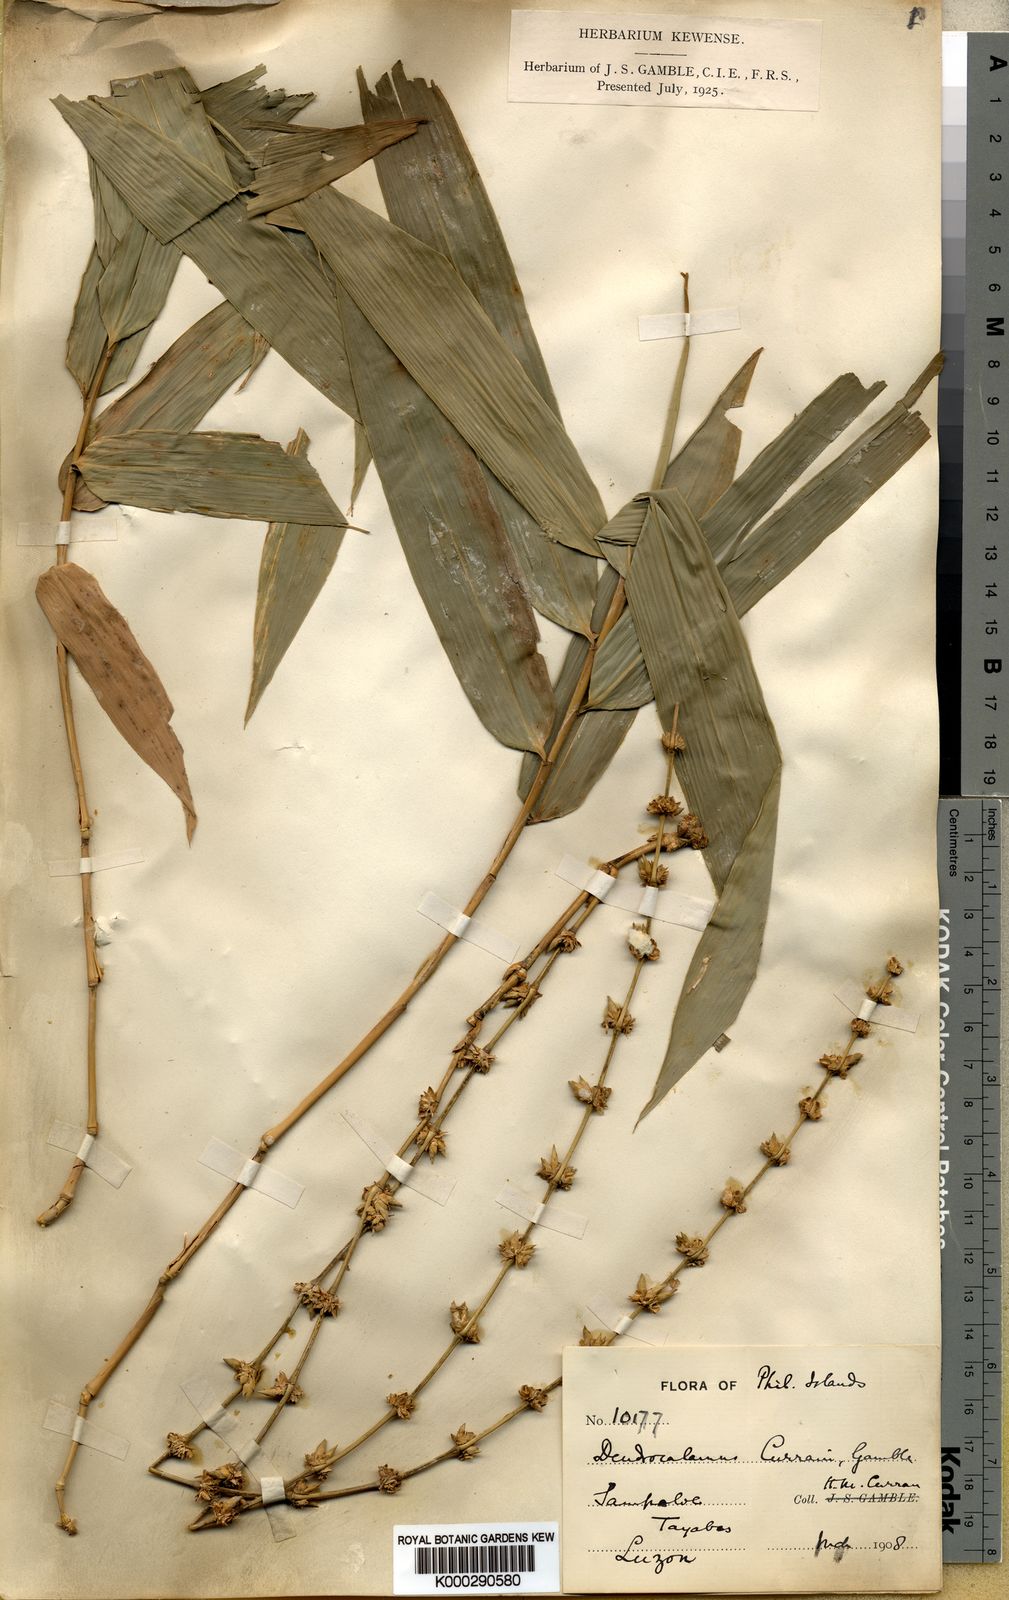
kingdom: Plantae
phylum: Tracheophyta
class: Liliopsida
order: Poales
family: Poaceae
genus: Gigantochloa
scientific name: Gigantochloa levis
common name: Smooth-shoot gigantochloa
